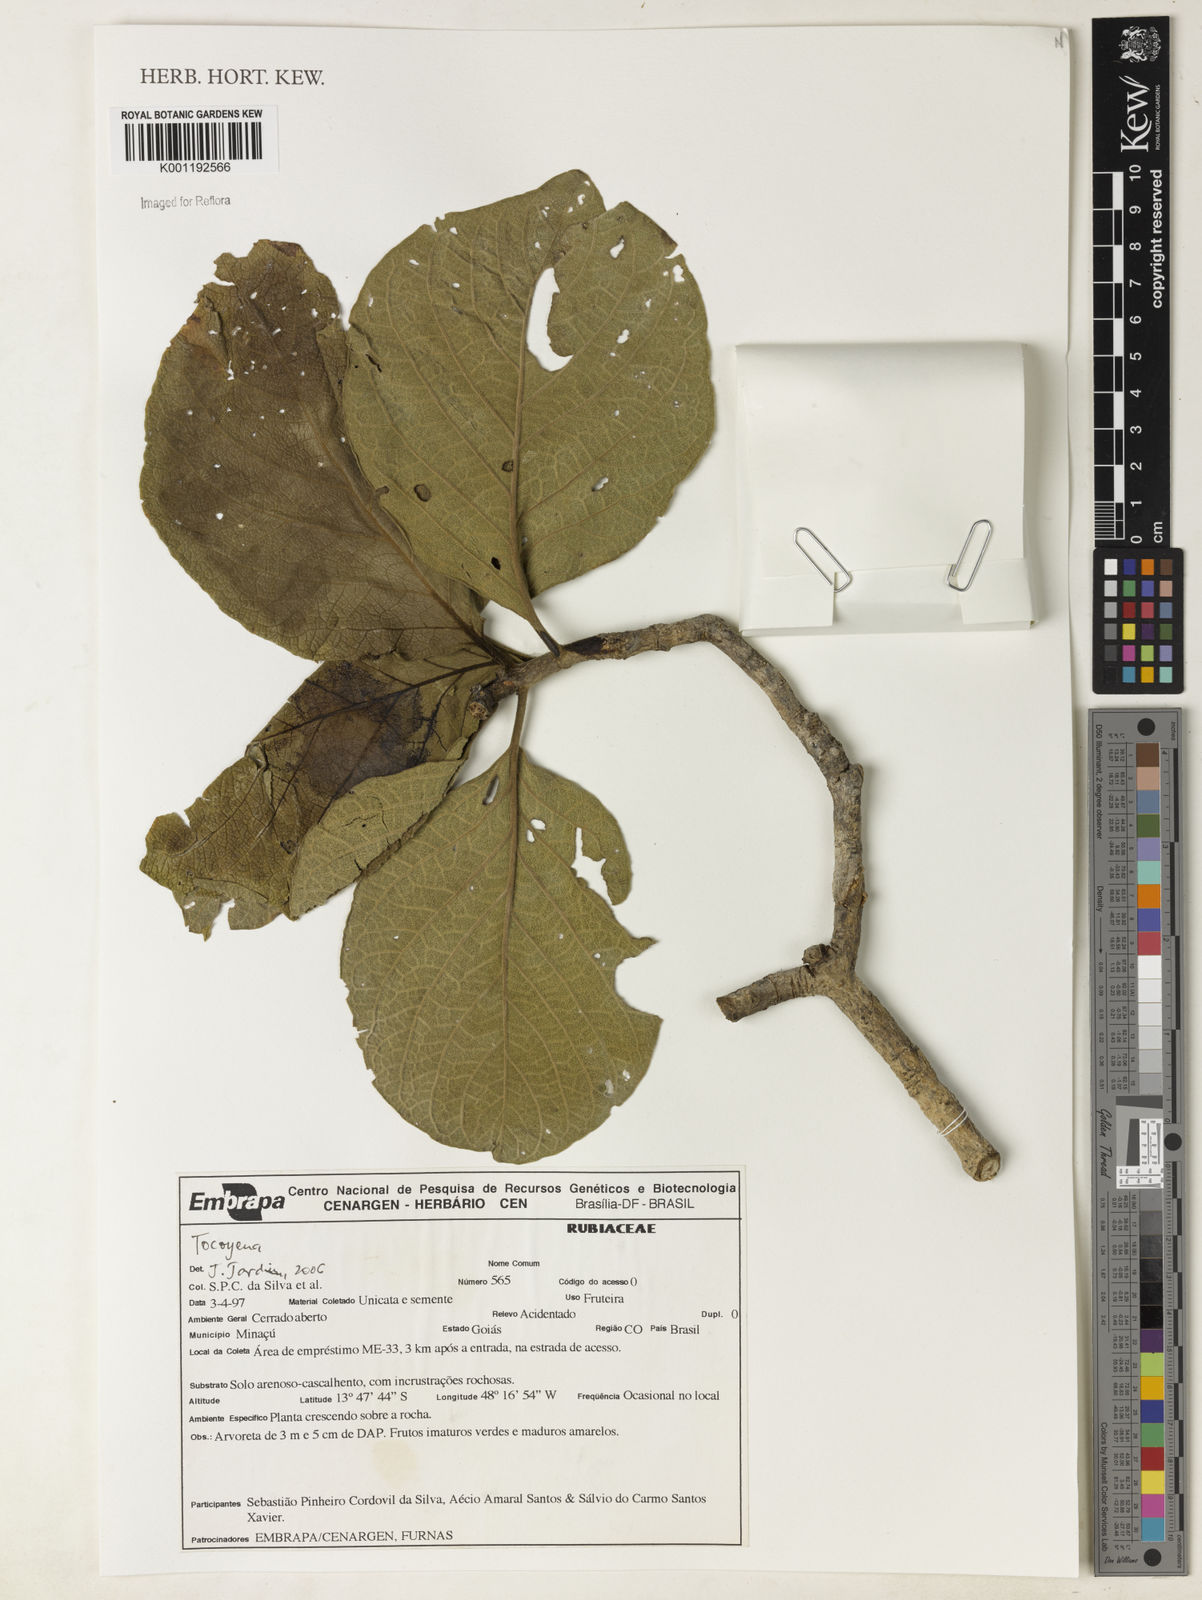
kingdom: Plantae
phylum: Tracheophyta
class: Magnoliopsida
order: Gentianales
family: Rubiaceae
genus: Tocoyena
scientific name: Tocoyena formosa
